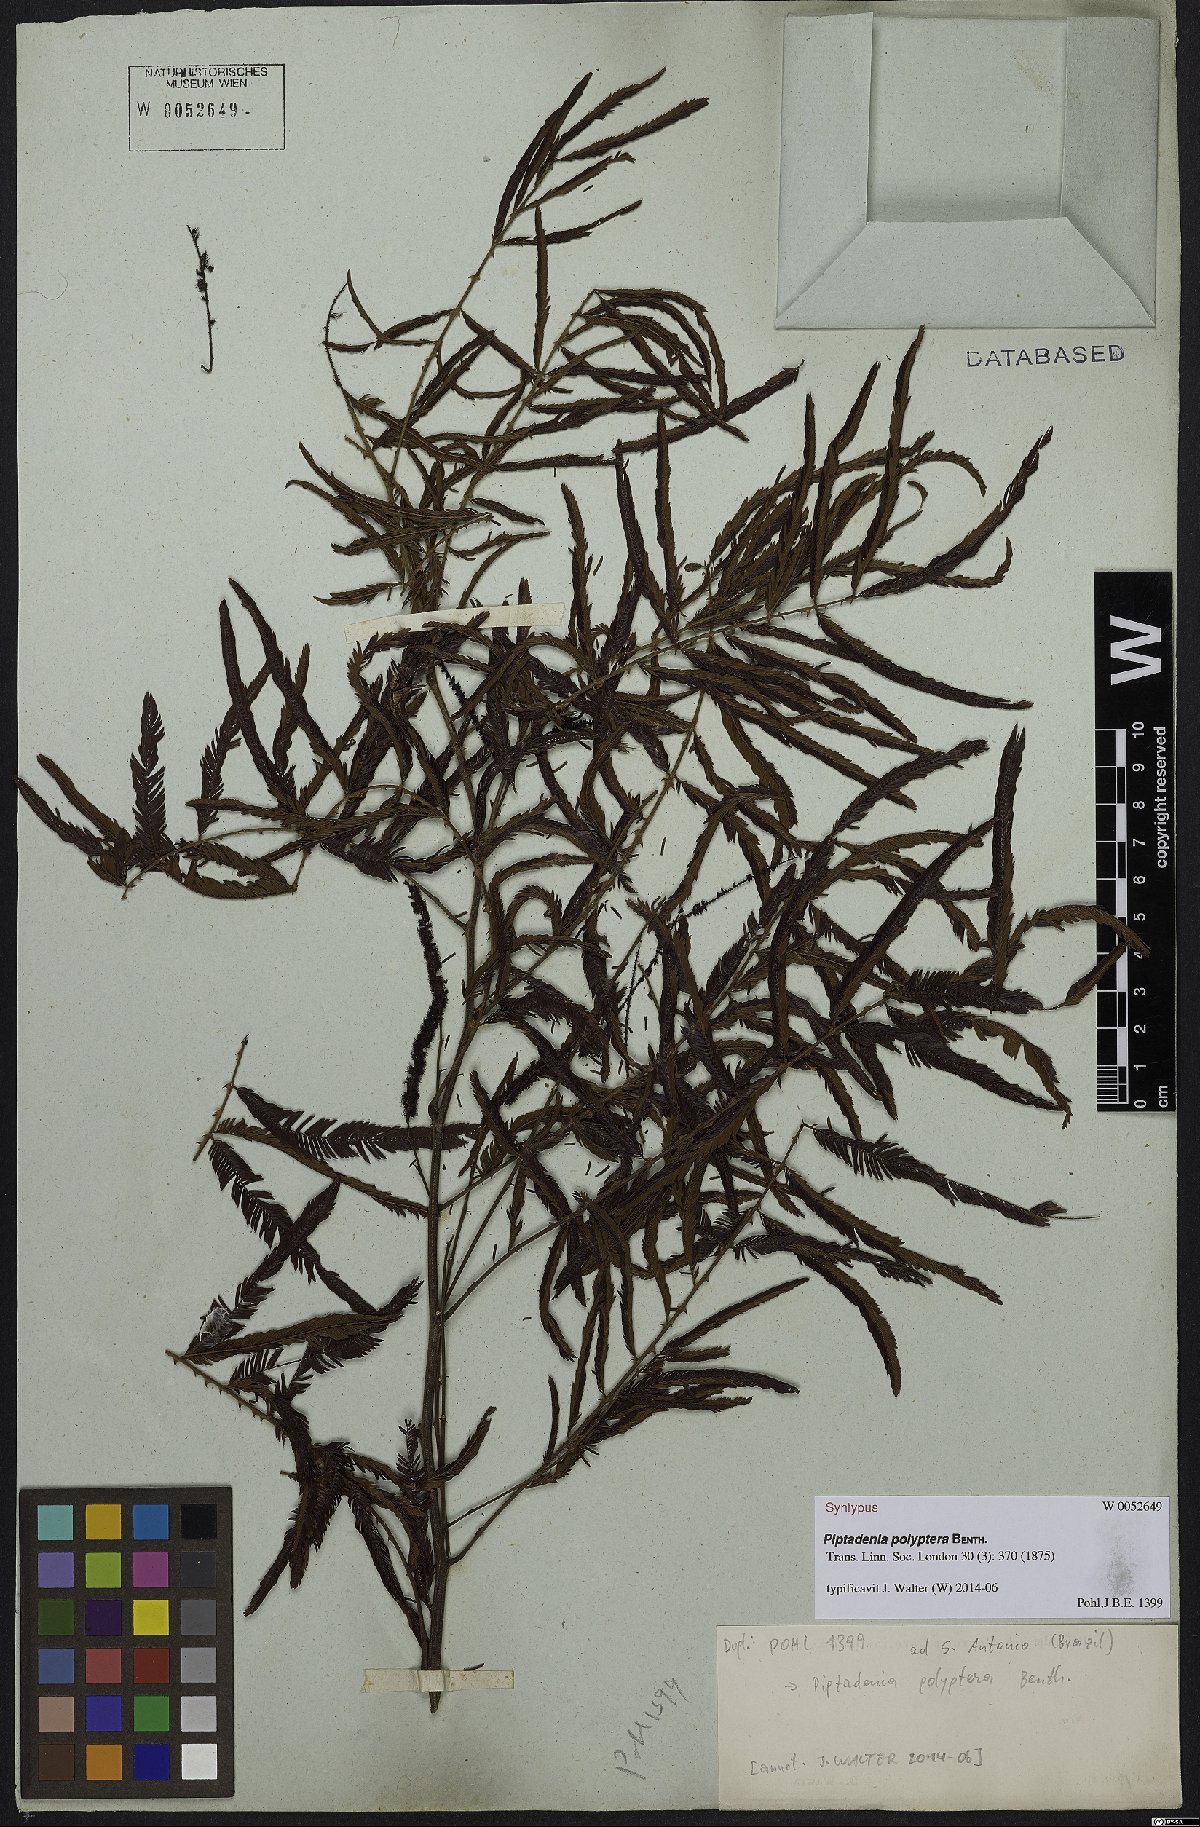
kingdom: Plantae
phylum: Tracheophyta
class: Magnoliopsida
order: Fabales
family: Fabaceae
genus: Piptadenia
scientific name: Piptadenia trisperma
